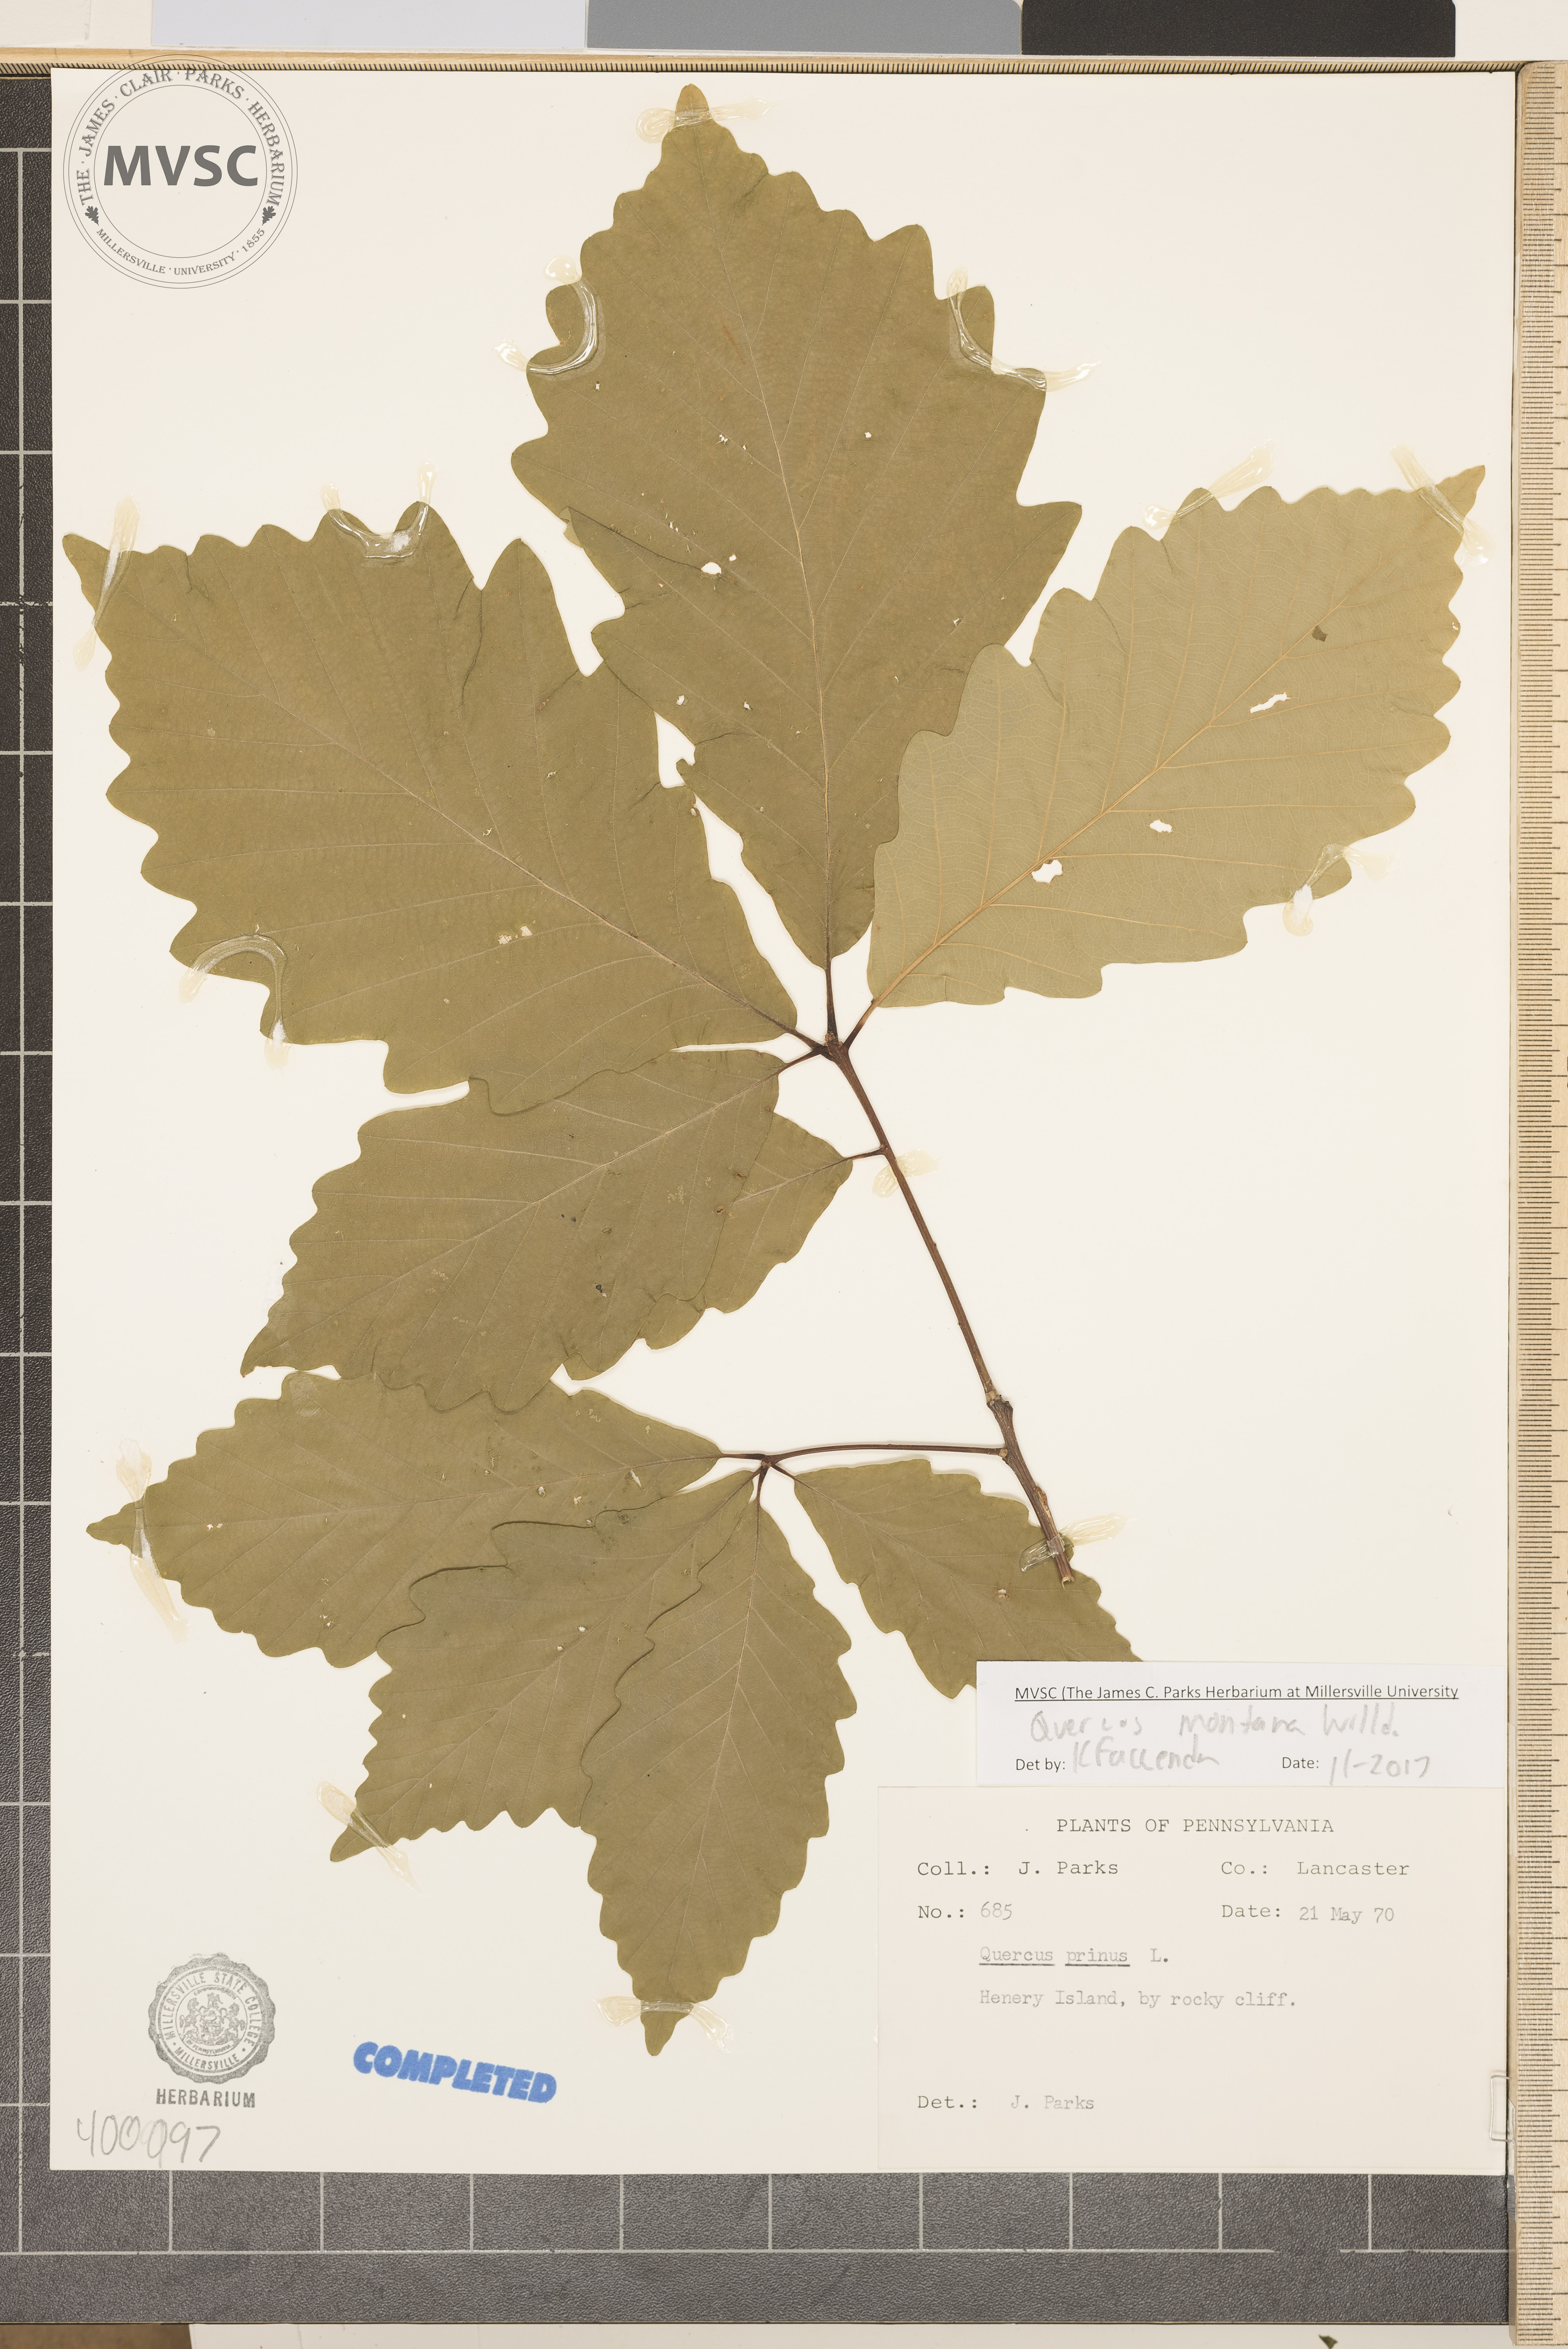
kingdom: Plantae
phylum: Tracheophyta
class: Magnoliopsida
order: Fagales
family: Fagaceae
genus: Quercus
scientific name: Quercus montana
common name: chestnut oak
